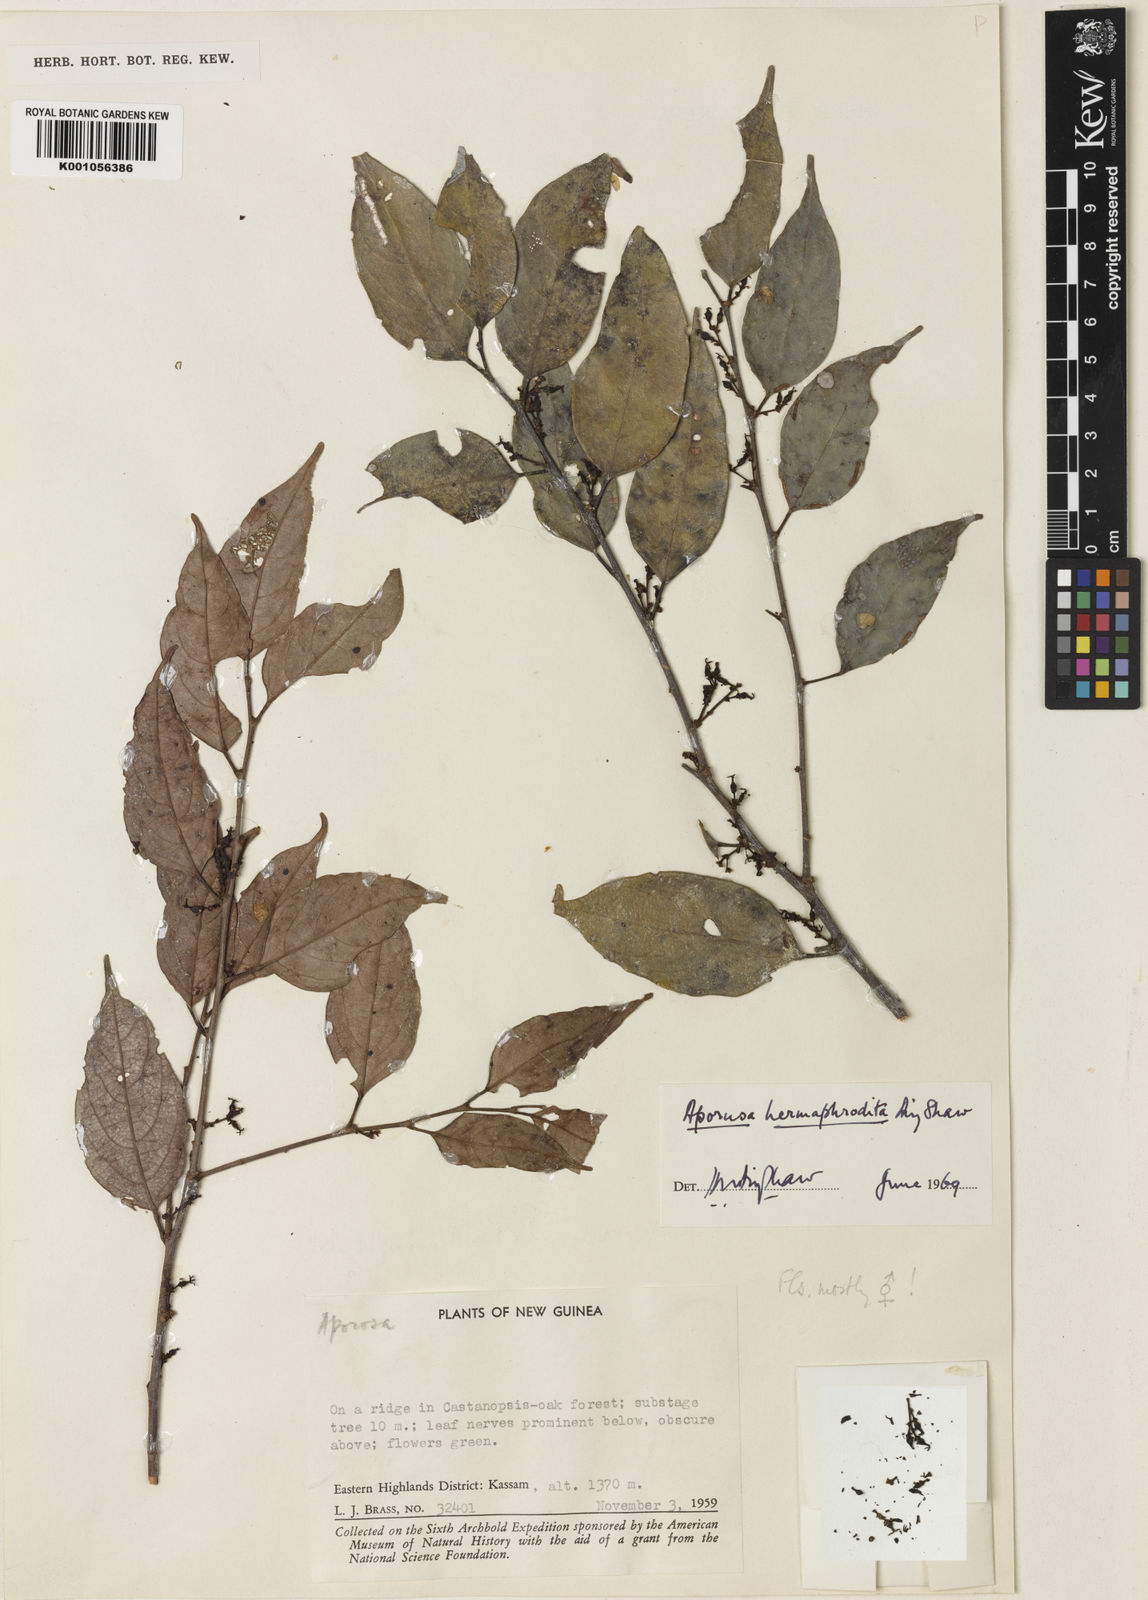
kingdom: Plantae
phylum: Tracheophyta
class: Magnoliopsida
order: Malpighiales
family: Phyllanthaceae
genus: Aporosa
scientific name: Aporosa hermaphrodita
